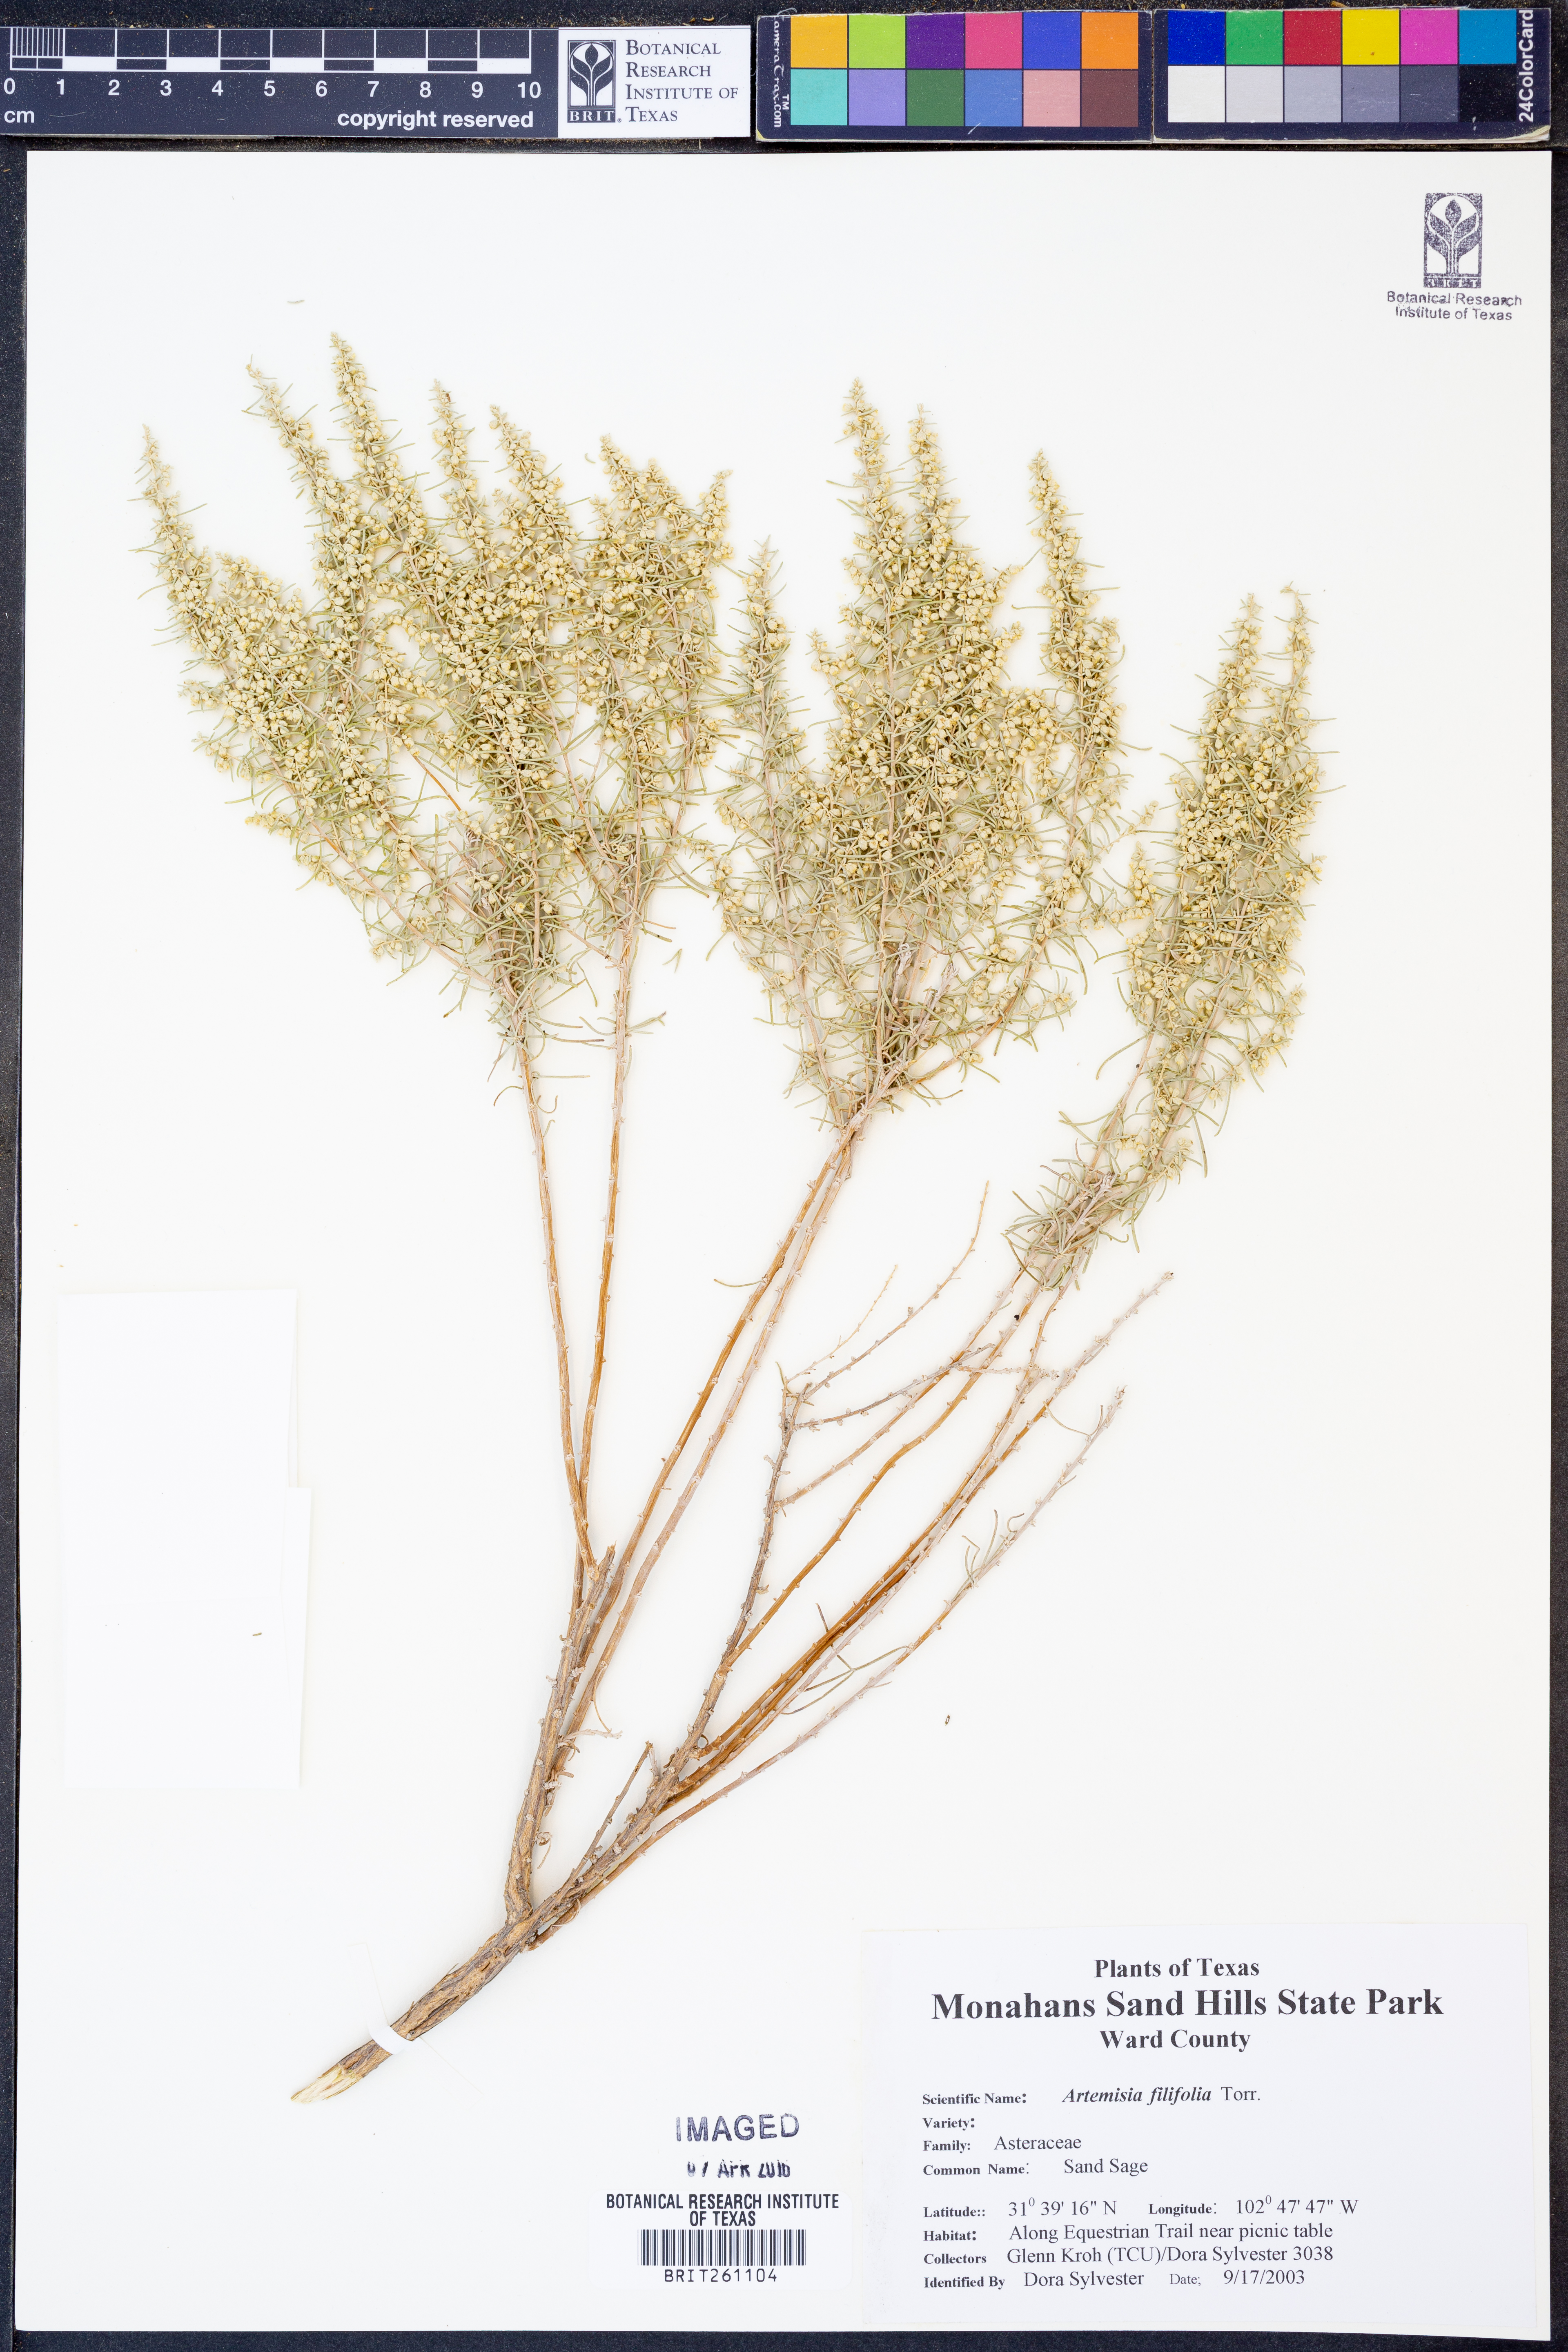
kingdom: Plantae
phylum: Tracheophyta
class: Magnoliopsida
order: Asterales
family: Asteraceae
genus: Artemisia
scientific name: Artemisia filifolia
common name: Sand-sage
